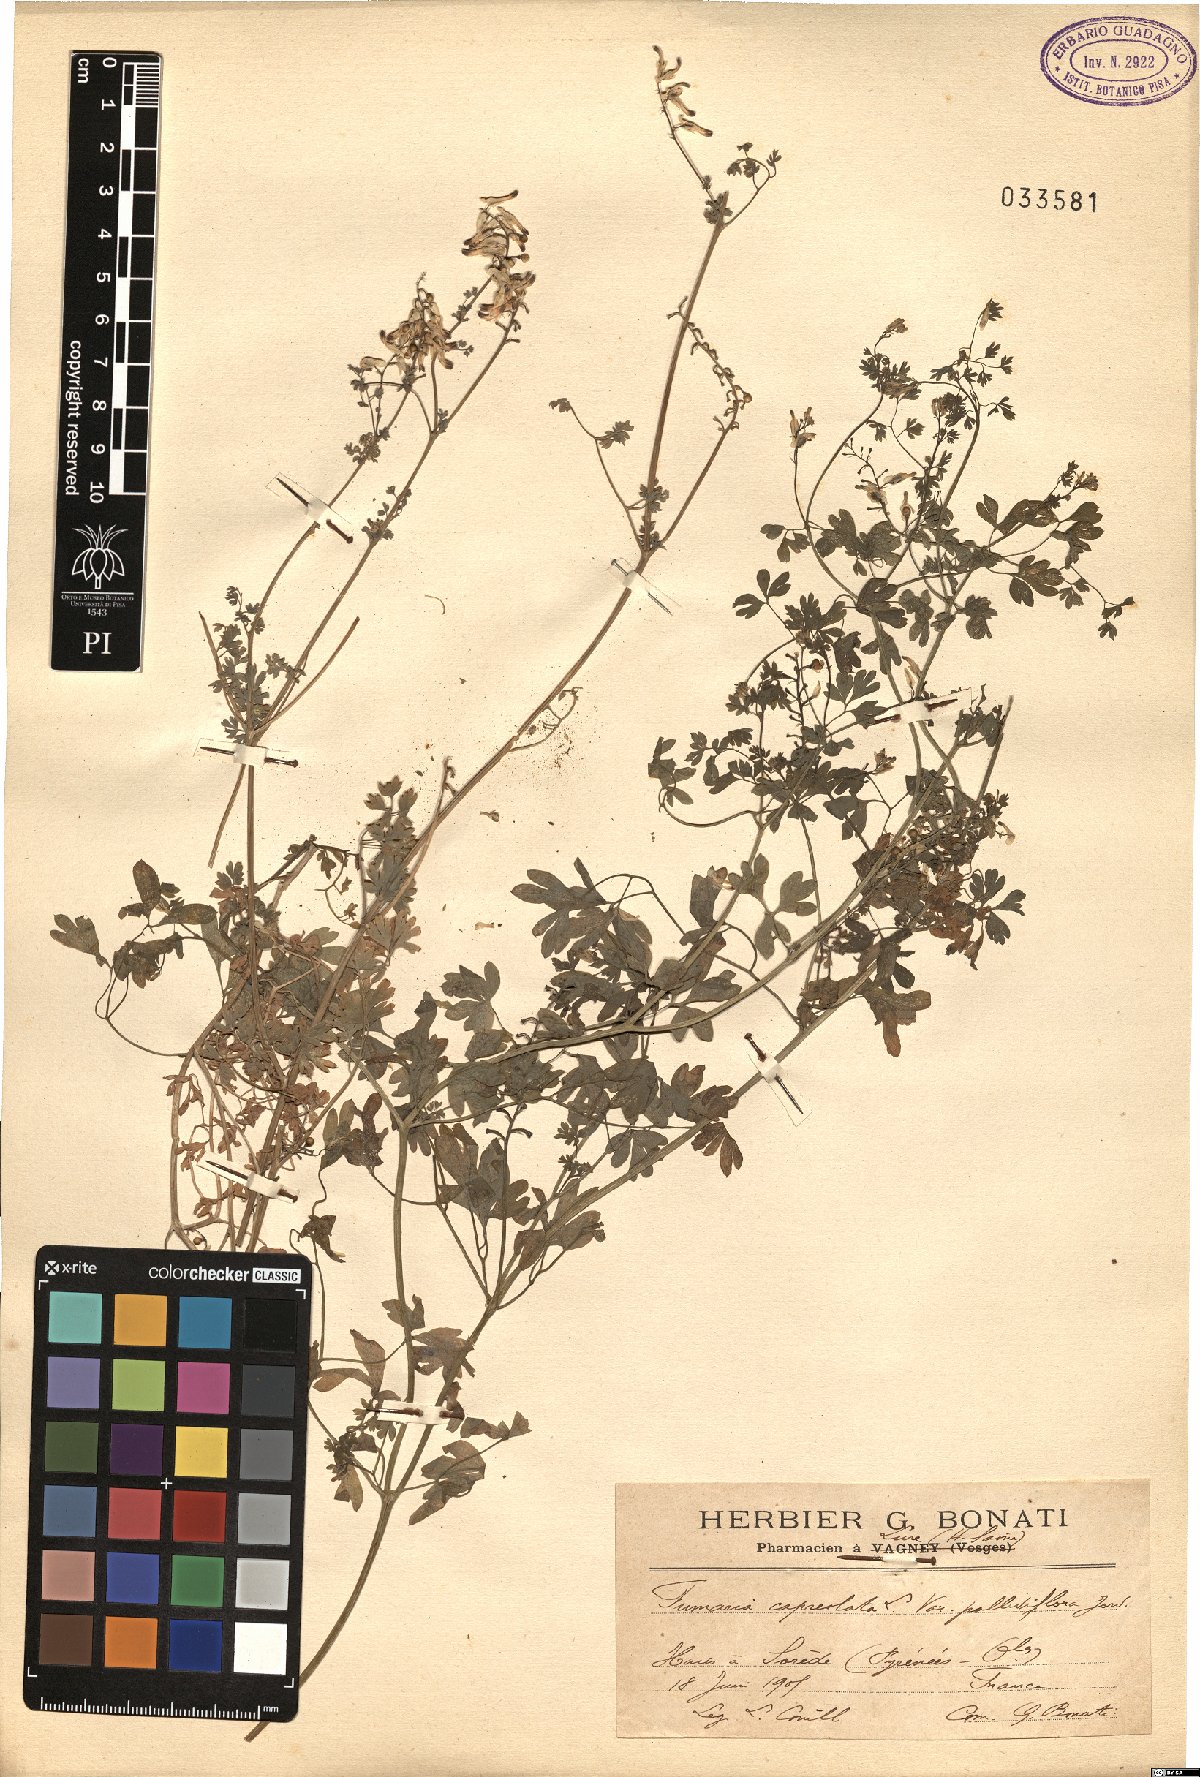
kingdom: Plantae
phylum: Tracheophyta
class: Magnoliopsida
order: Ranunculales
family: Papaveraceae
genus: Fumaria
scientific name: Fumaria capreolata
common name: White ramping-fumitory
